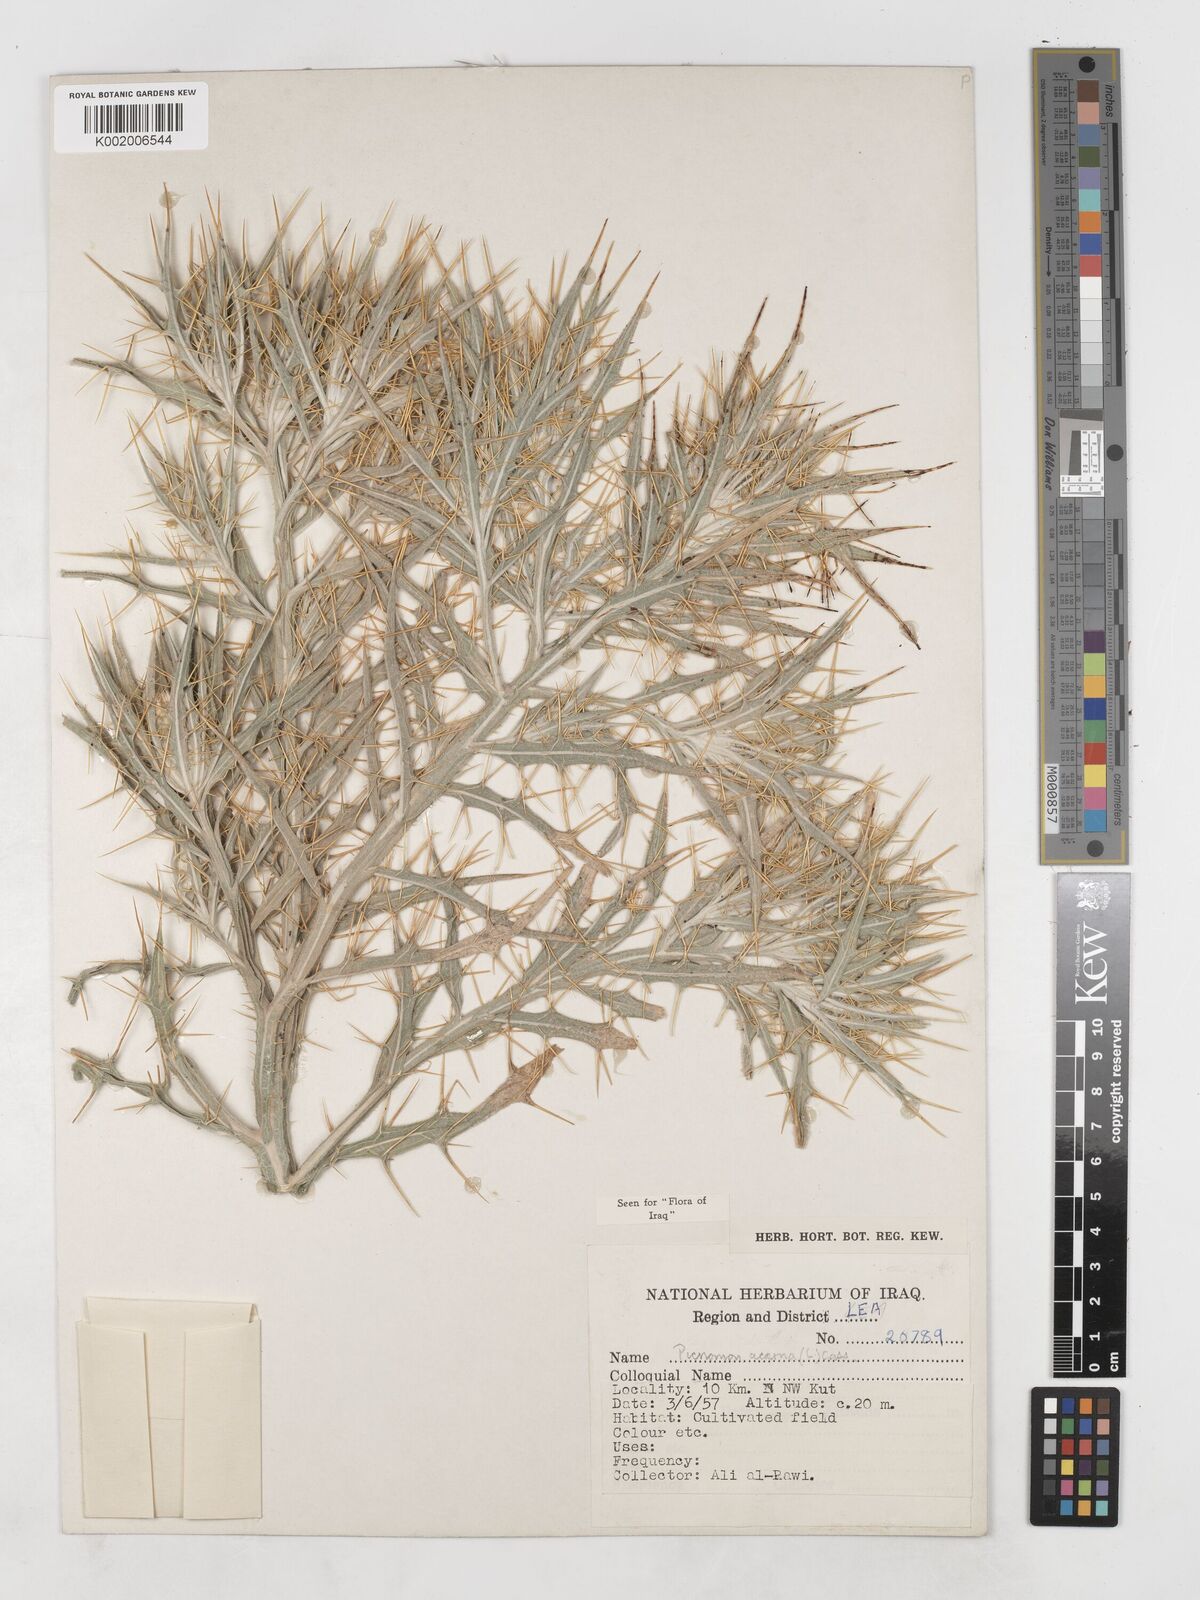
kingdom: Plantae
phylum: Tracheophyta
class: Magnoliopsida
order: Asterales
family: Asteraceae
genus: Picnomon
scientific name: Picnomon acarna
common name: Soldier thistle
